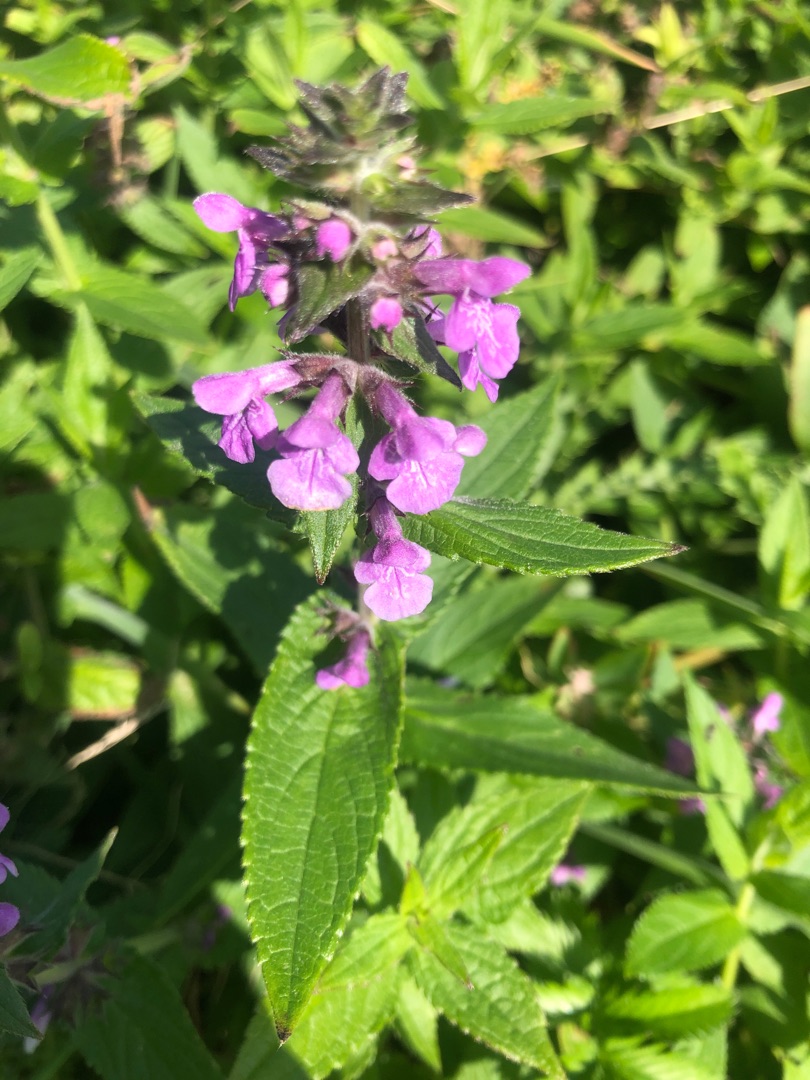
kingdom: Plantae
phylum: Tracheophyta
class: Magnoliopsida
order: Lamiales
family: Lamiaceae
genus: Stachys
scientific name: Stachys palustris
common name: Kær-galtetand
